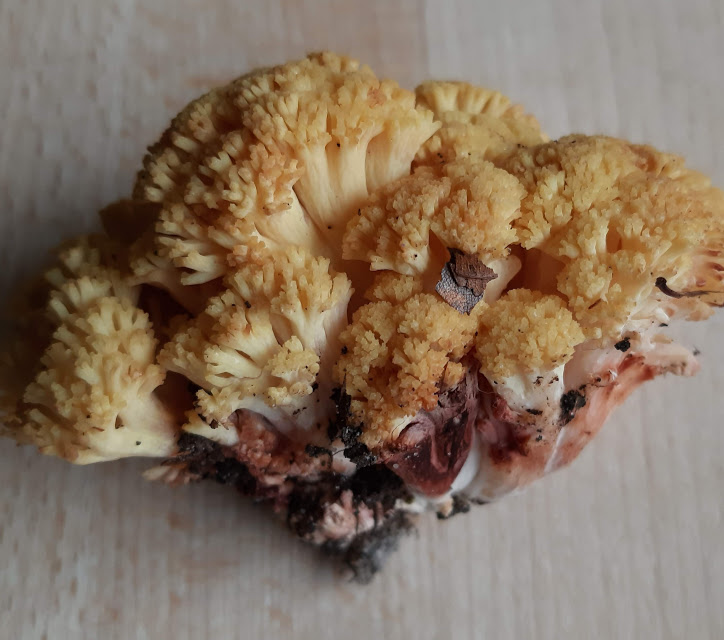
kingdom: Fungi
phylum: Basidiomycota
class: Agaricomycetes
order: Gomphales
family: Gomphaceae
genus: Ramaria
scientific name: Ramaria sanguinea
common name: blodplettet koralsvamp
